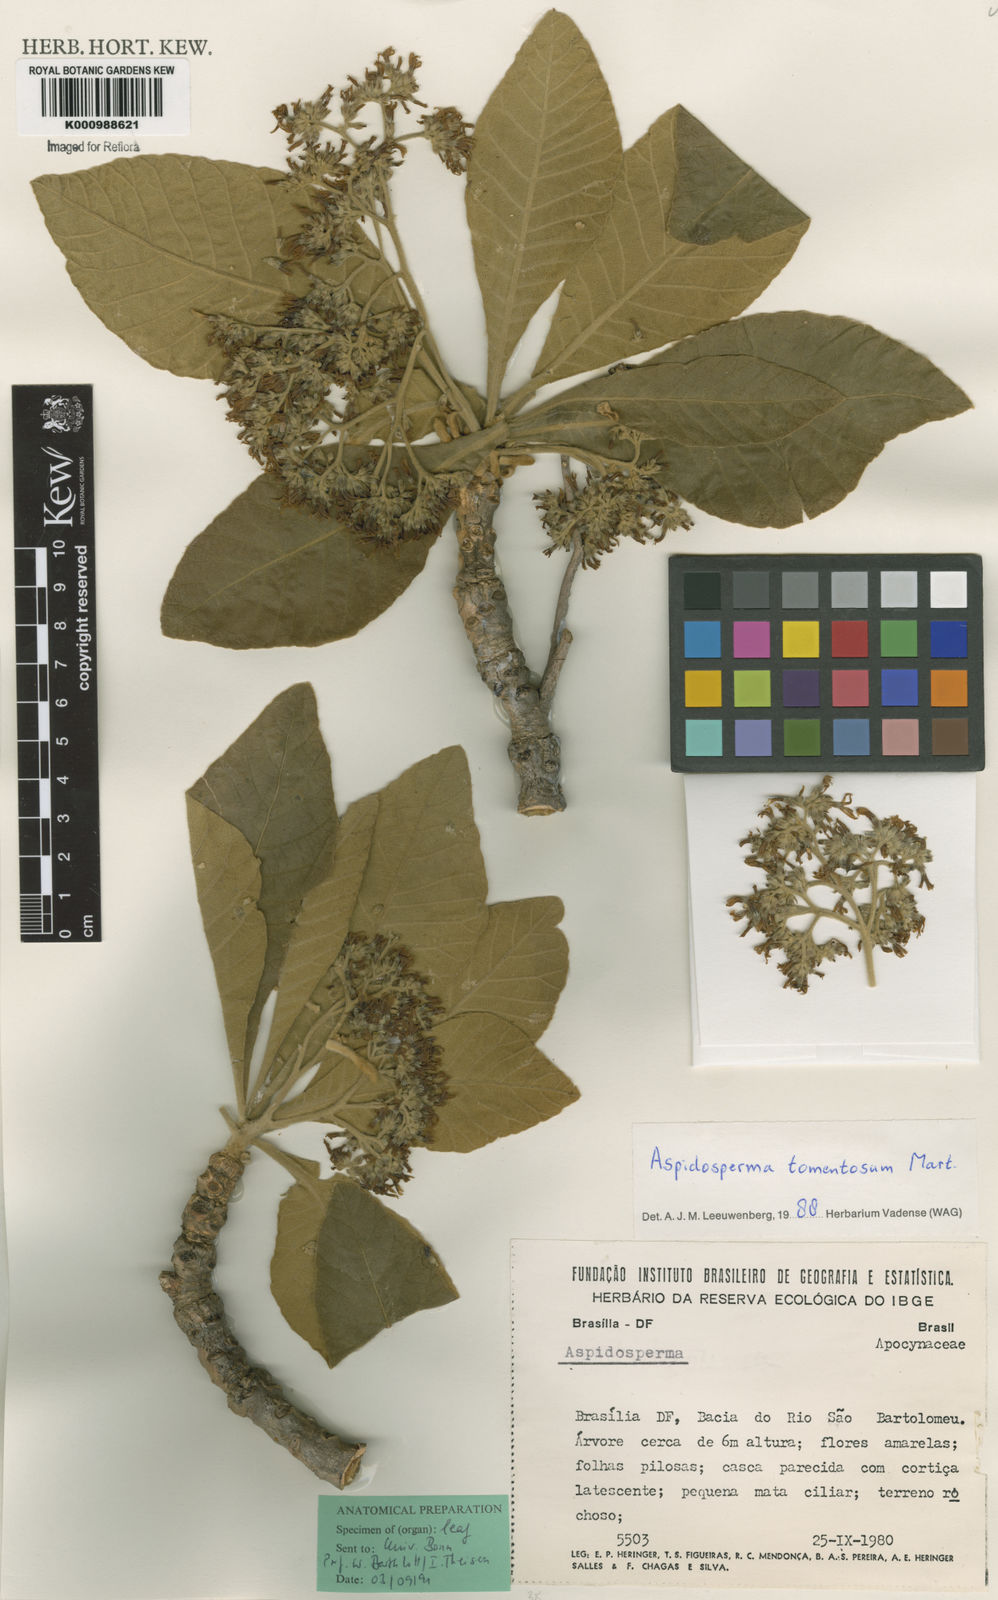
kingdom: Plantae
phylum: Tracheophyta
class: Magnoliopsida
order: Gentianales
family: Apocynaceae
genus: Aspidosperma
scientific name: Aspidosperma tomentosum
